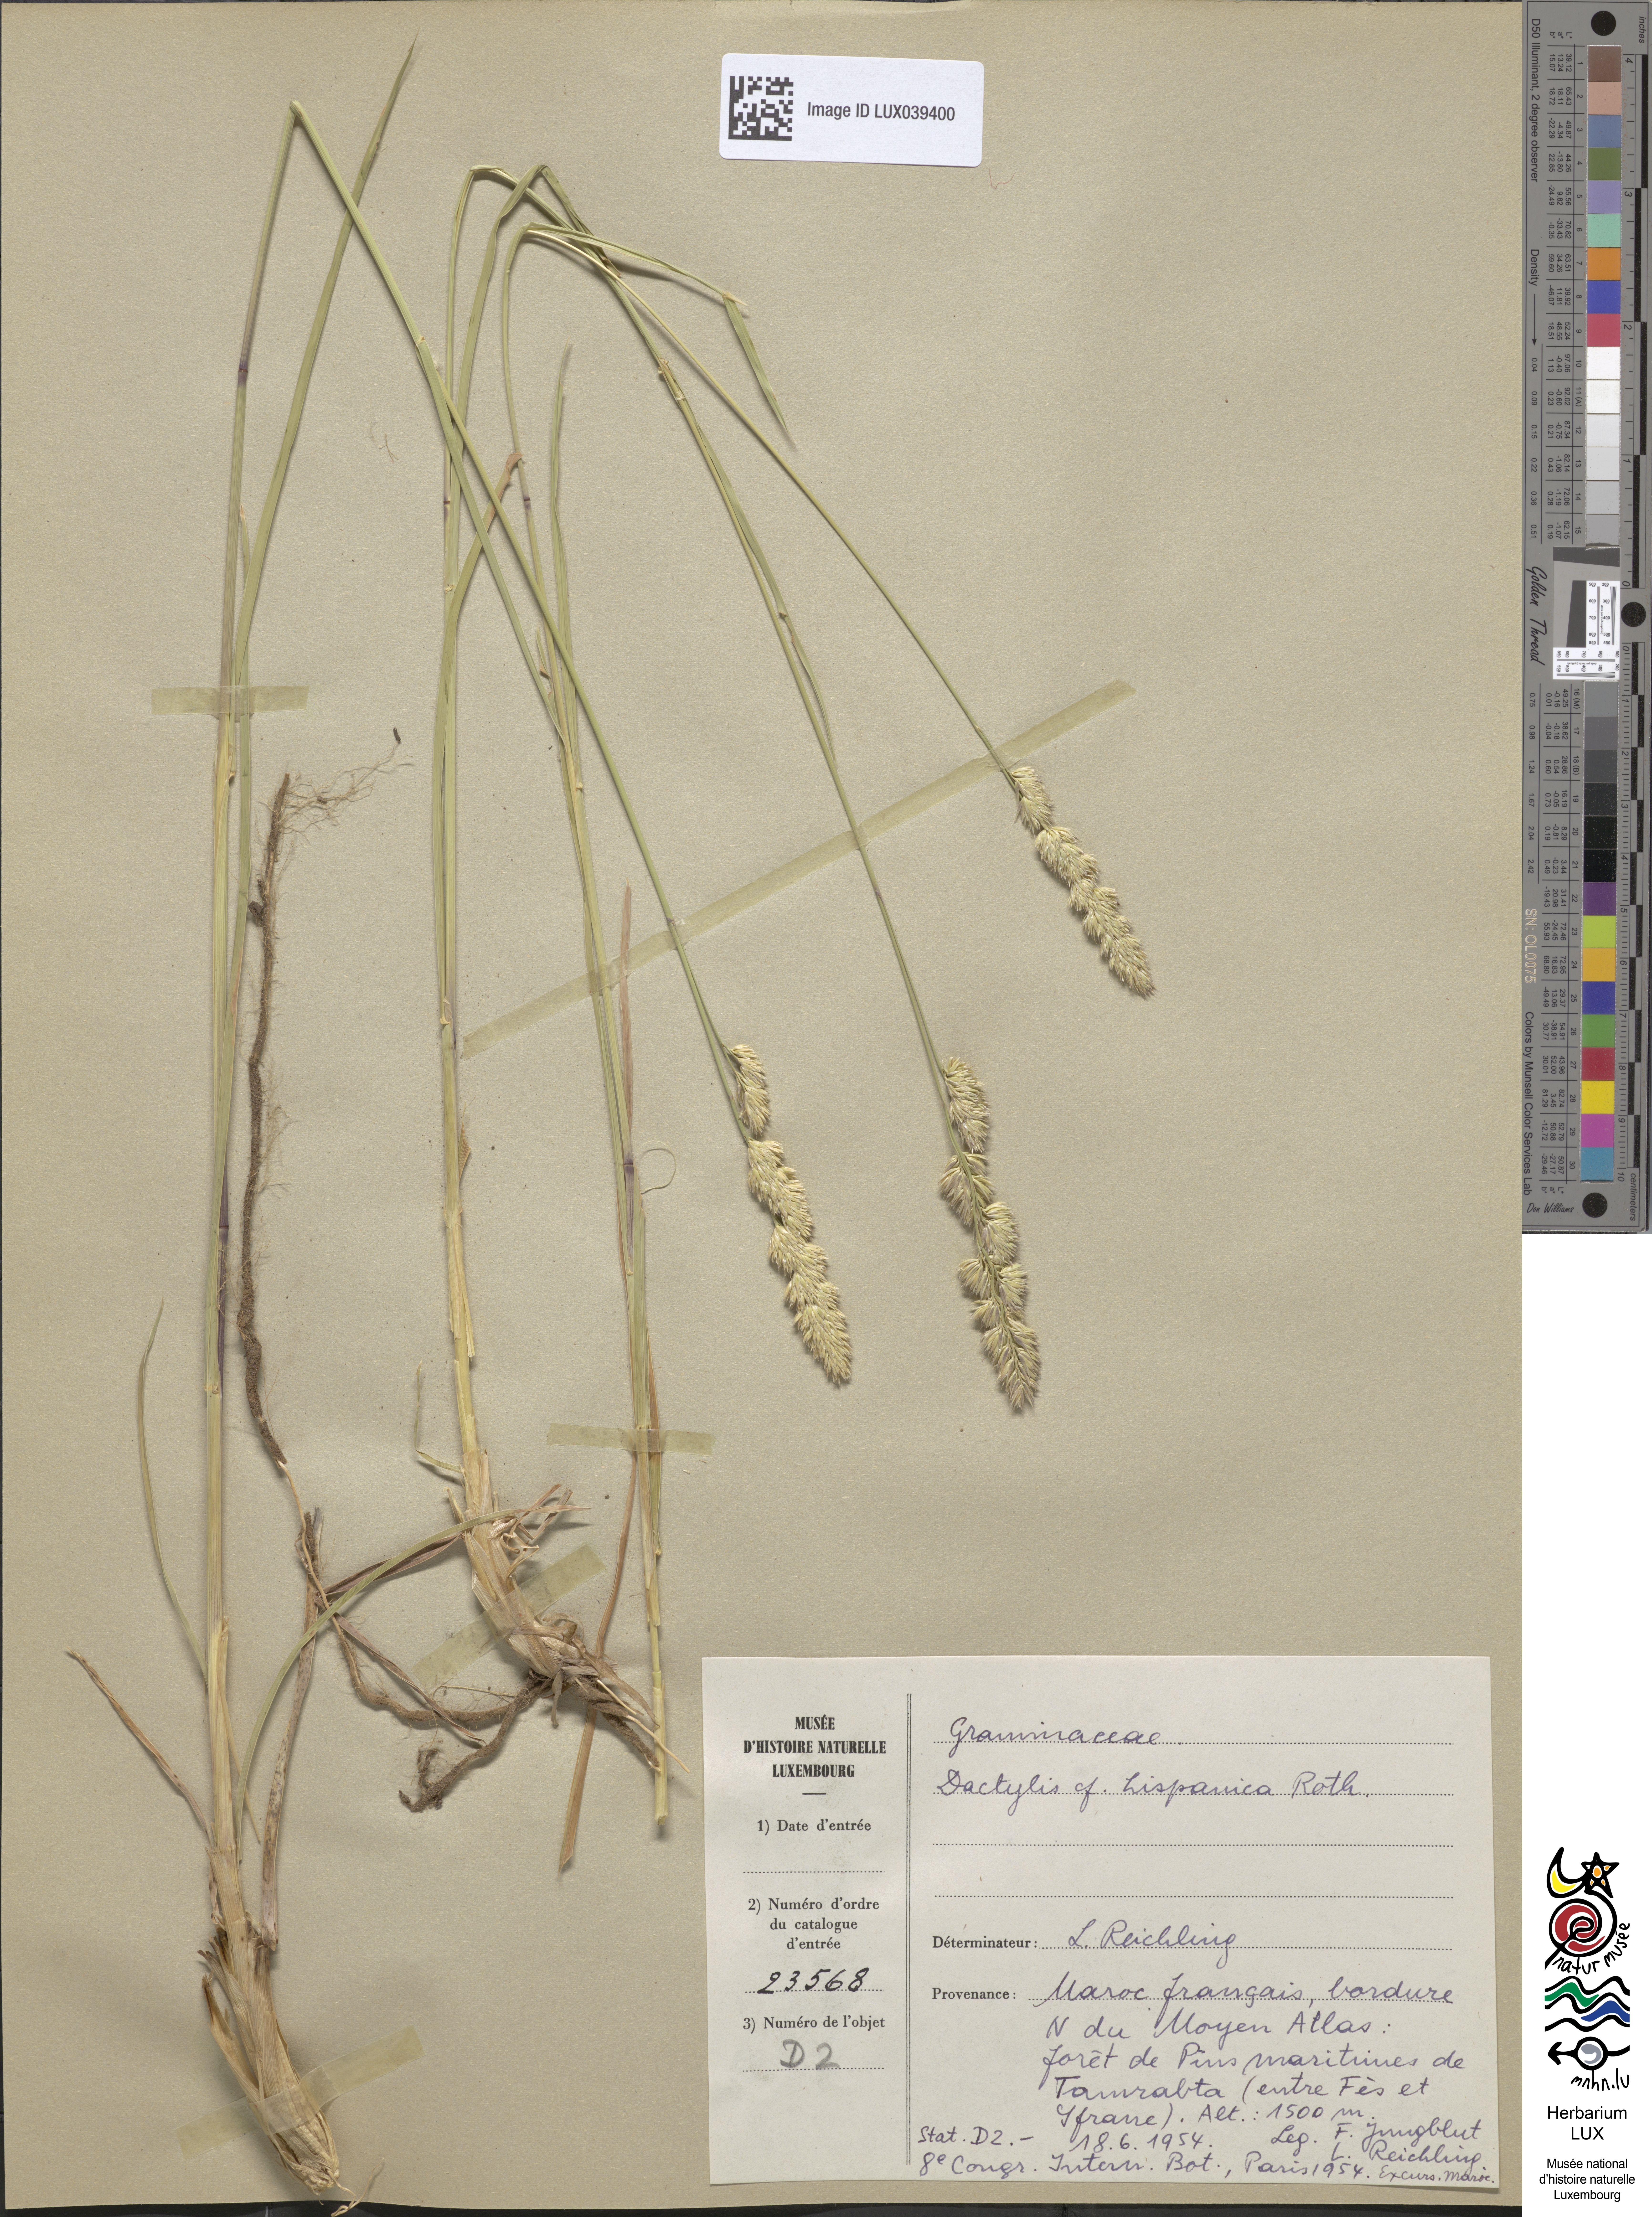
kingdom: Plantae
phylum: Tracheophyta
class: Liliopsida
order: Poales
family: Poaceae
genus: Dactylis
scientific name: Dactylis glomerata
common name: Orchardgrass
